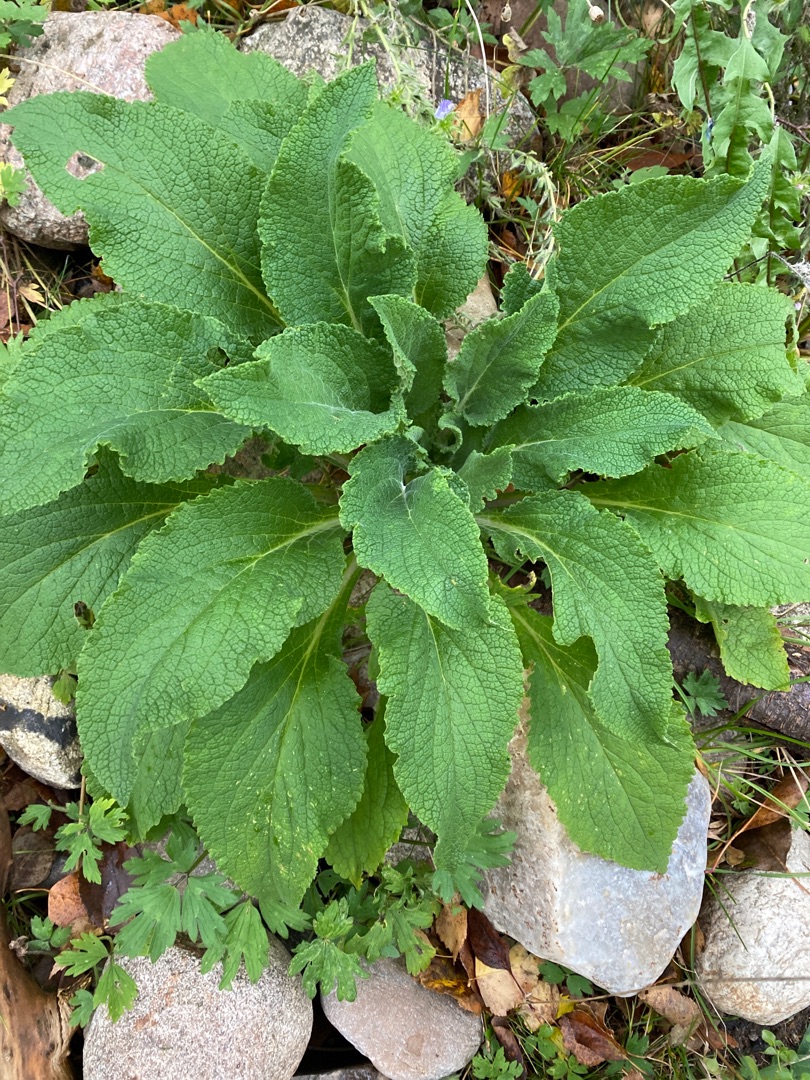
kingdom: Plantae
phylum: Tracheophyta
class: Magnoliopsida
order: Lamiales
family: Plantaginaceae
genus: Digitalis
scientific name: Digitalis purpurea
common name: Almindelig fingerbøl
